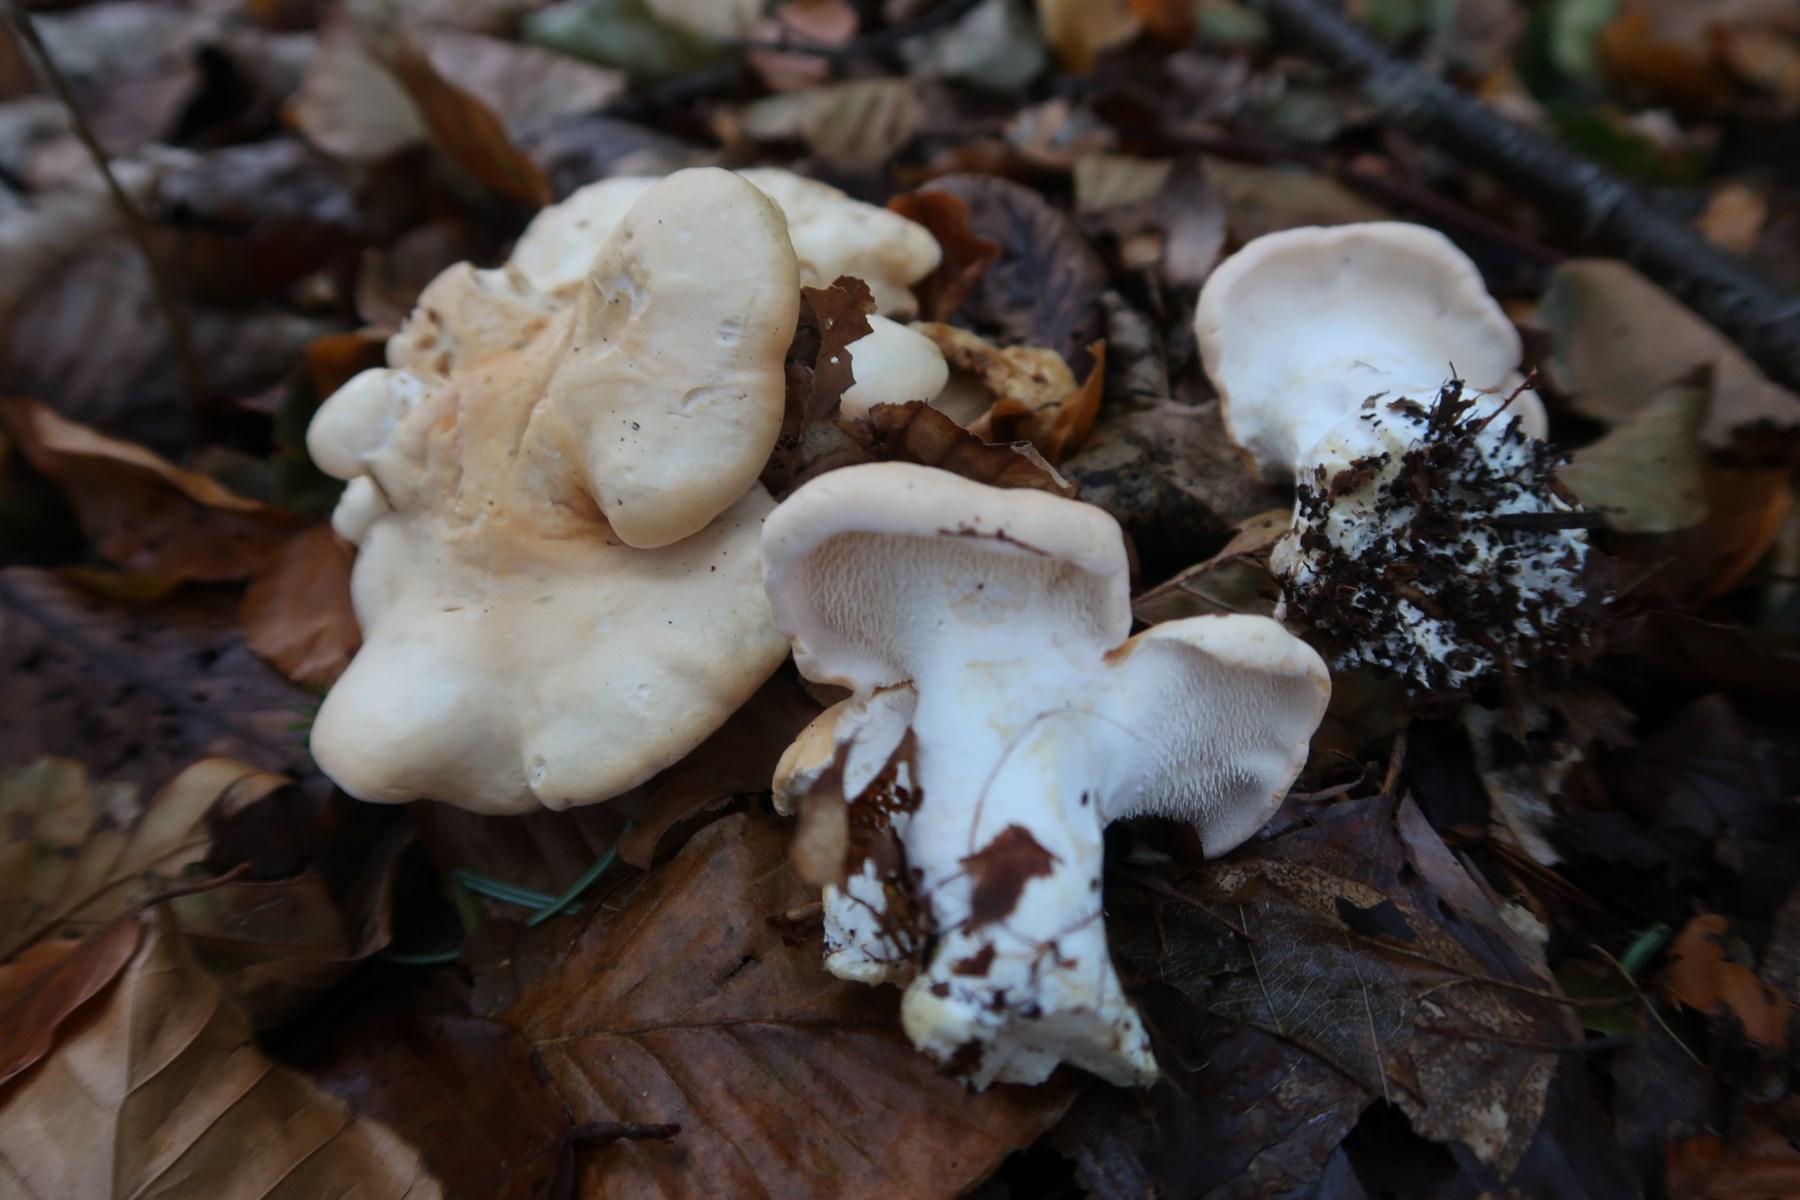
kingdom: Fungi
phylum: Basidiomycota
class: Agaricomycetes
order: Cantharellales
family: Hydnaceae
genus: Hydnum
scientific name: Hydnum repandum
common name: almindelig pigsvamp
